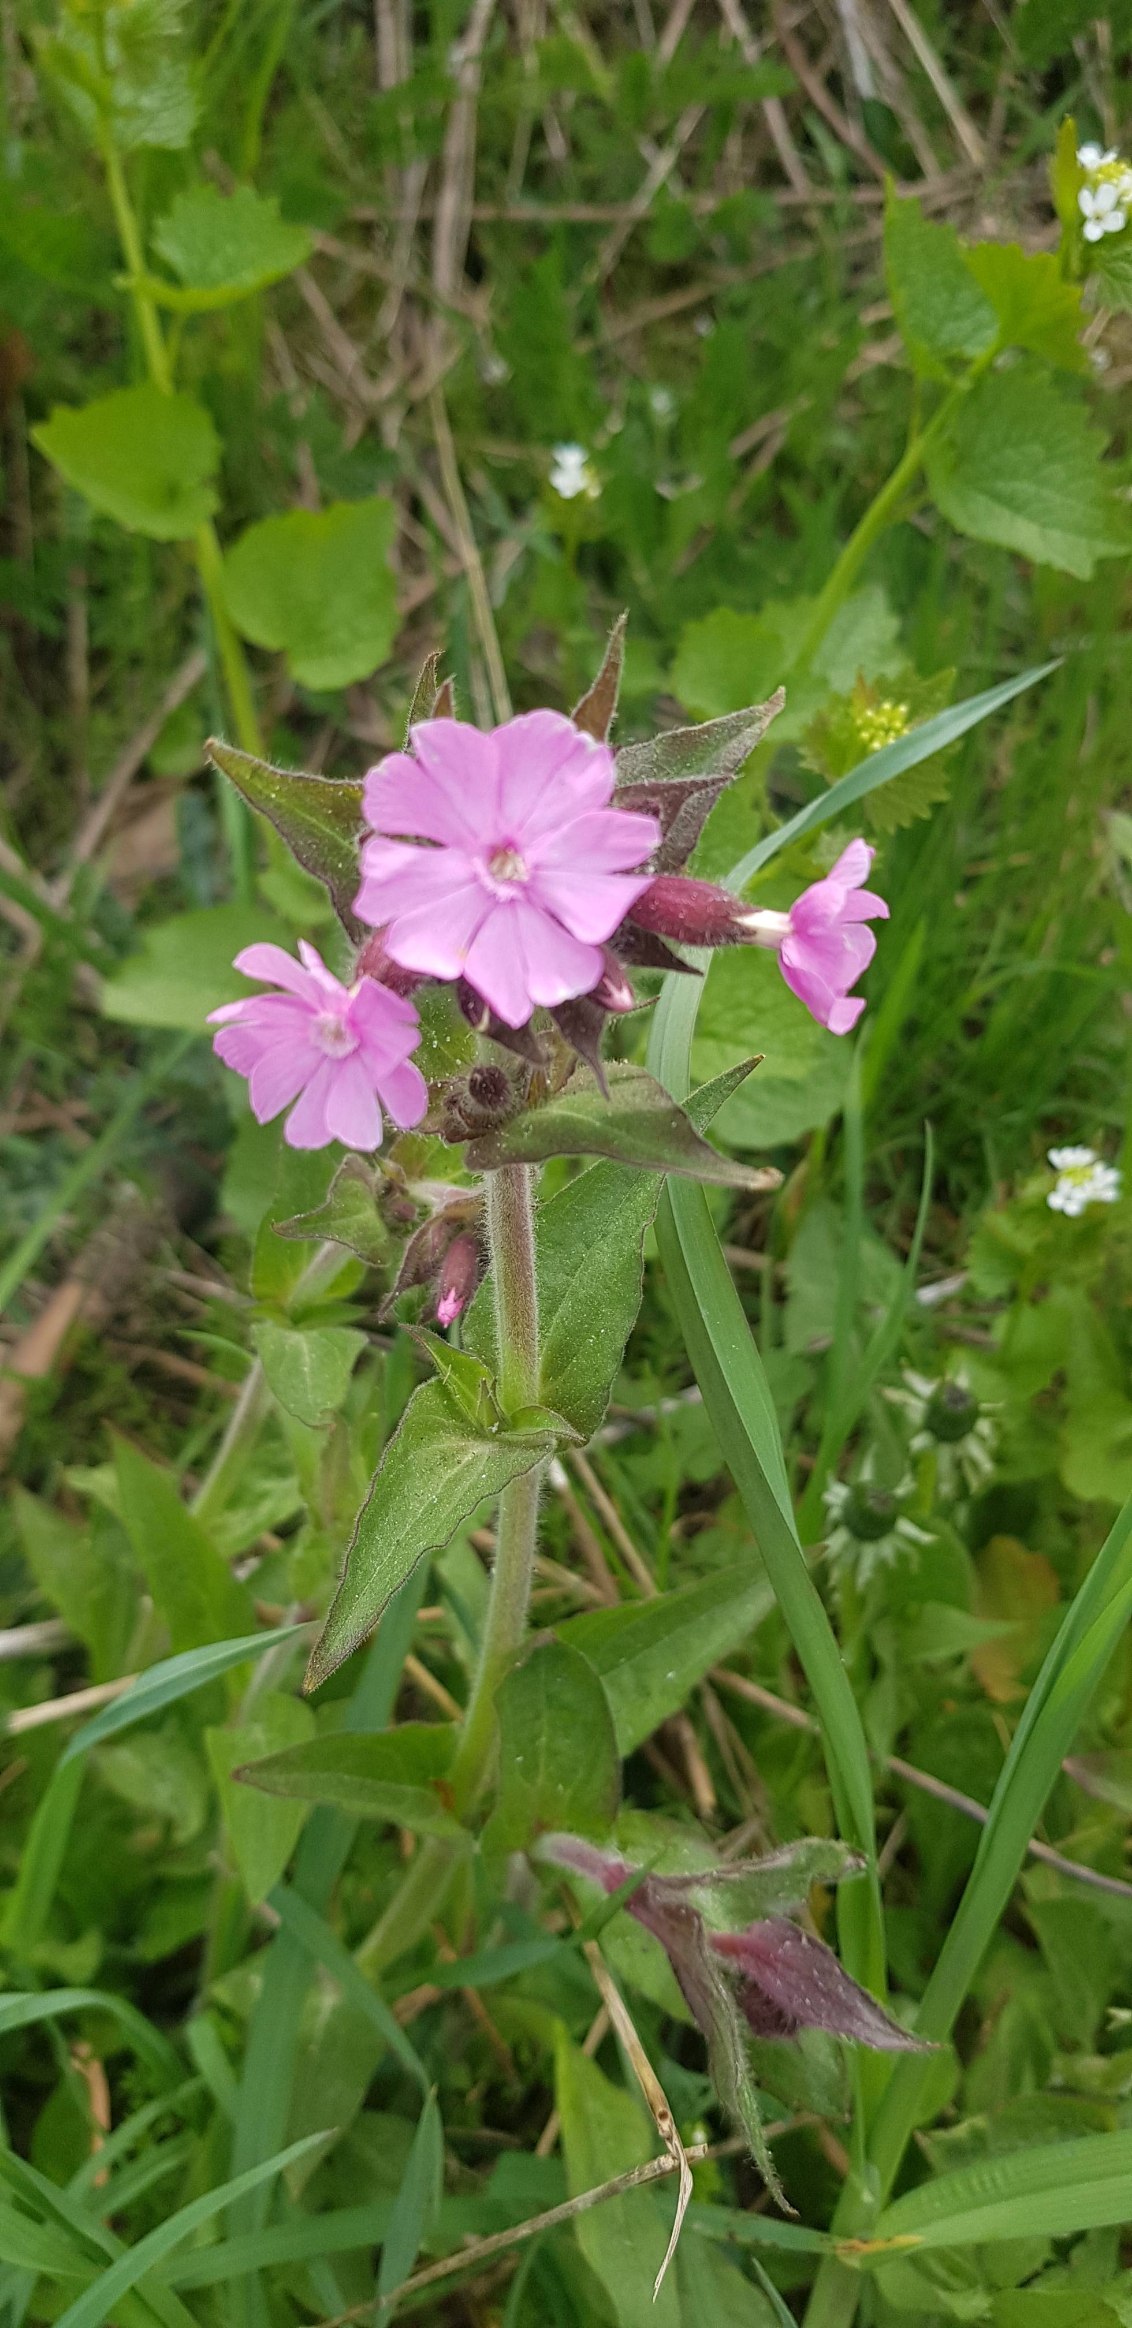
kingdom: Plantae
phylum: Tracheophyta
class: Magnoliopsida
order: Caryophyllales
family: Caryophyllaceae
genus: Silene
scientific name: Silene dioica
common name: Dagpragtstjerne
